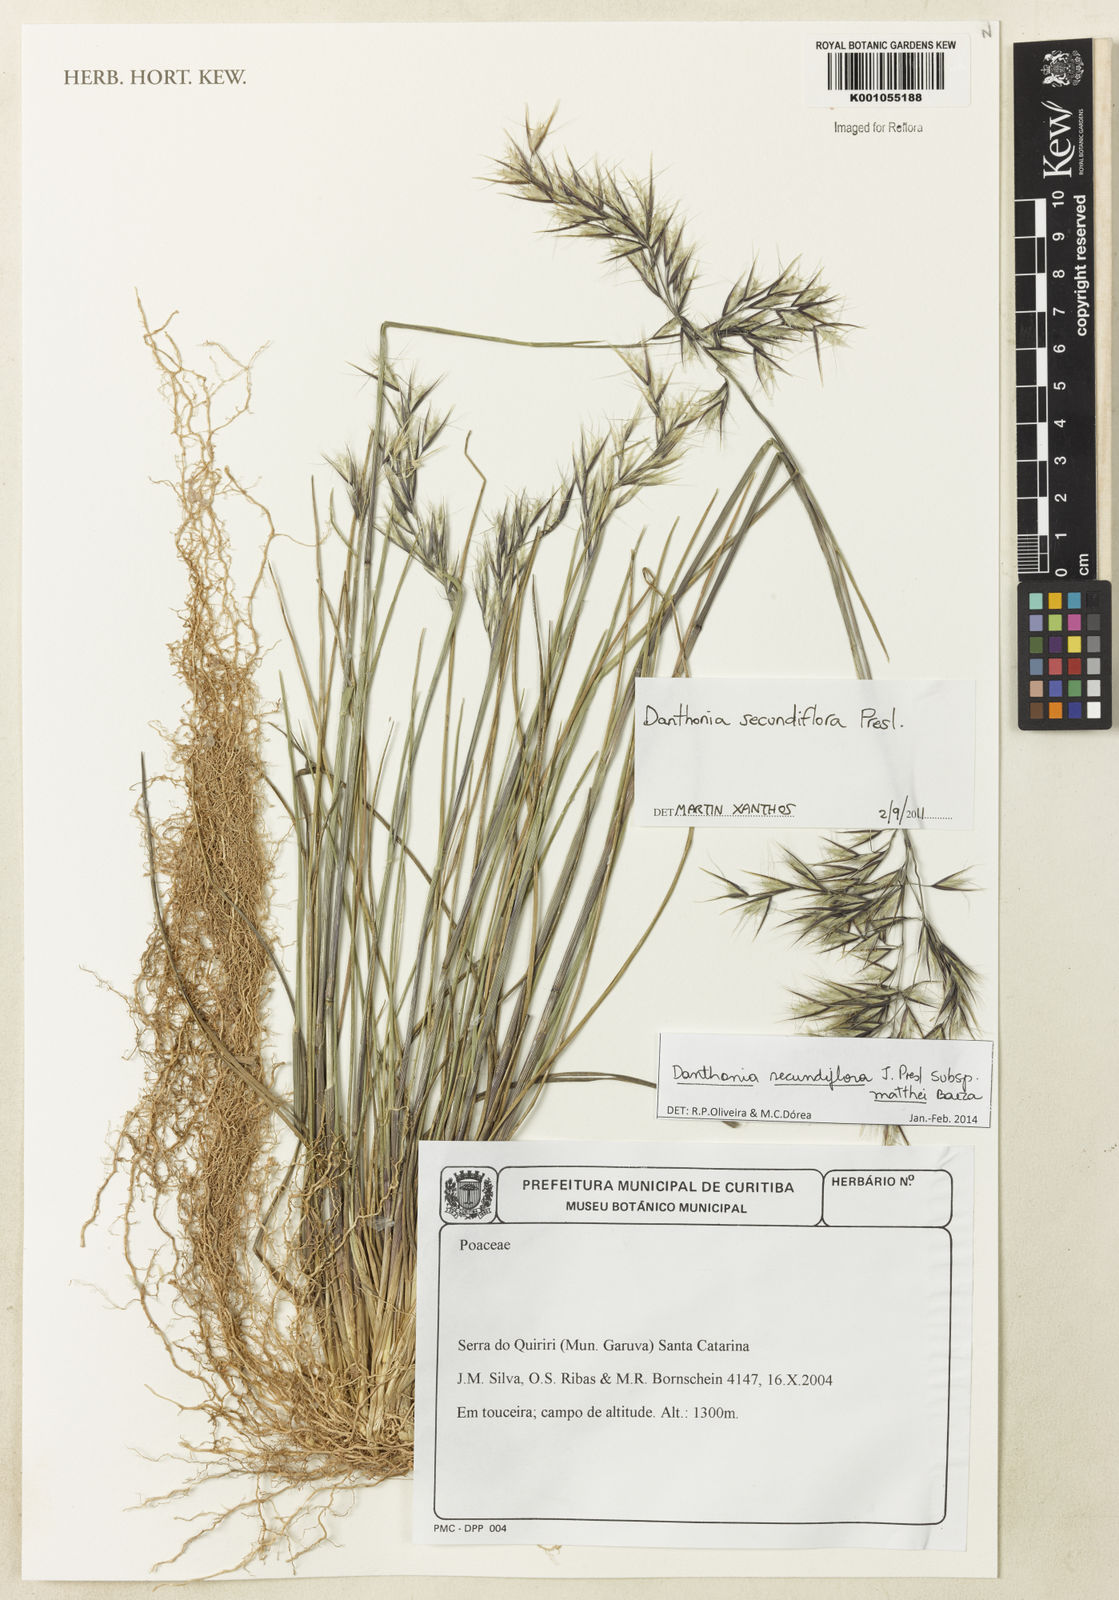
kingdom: Plantae
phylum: Tracheophyta
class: Liliopsida
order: Poales
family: Poaceae
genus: Danthonia
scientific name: Danthonia secundiflora
